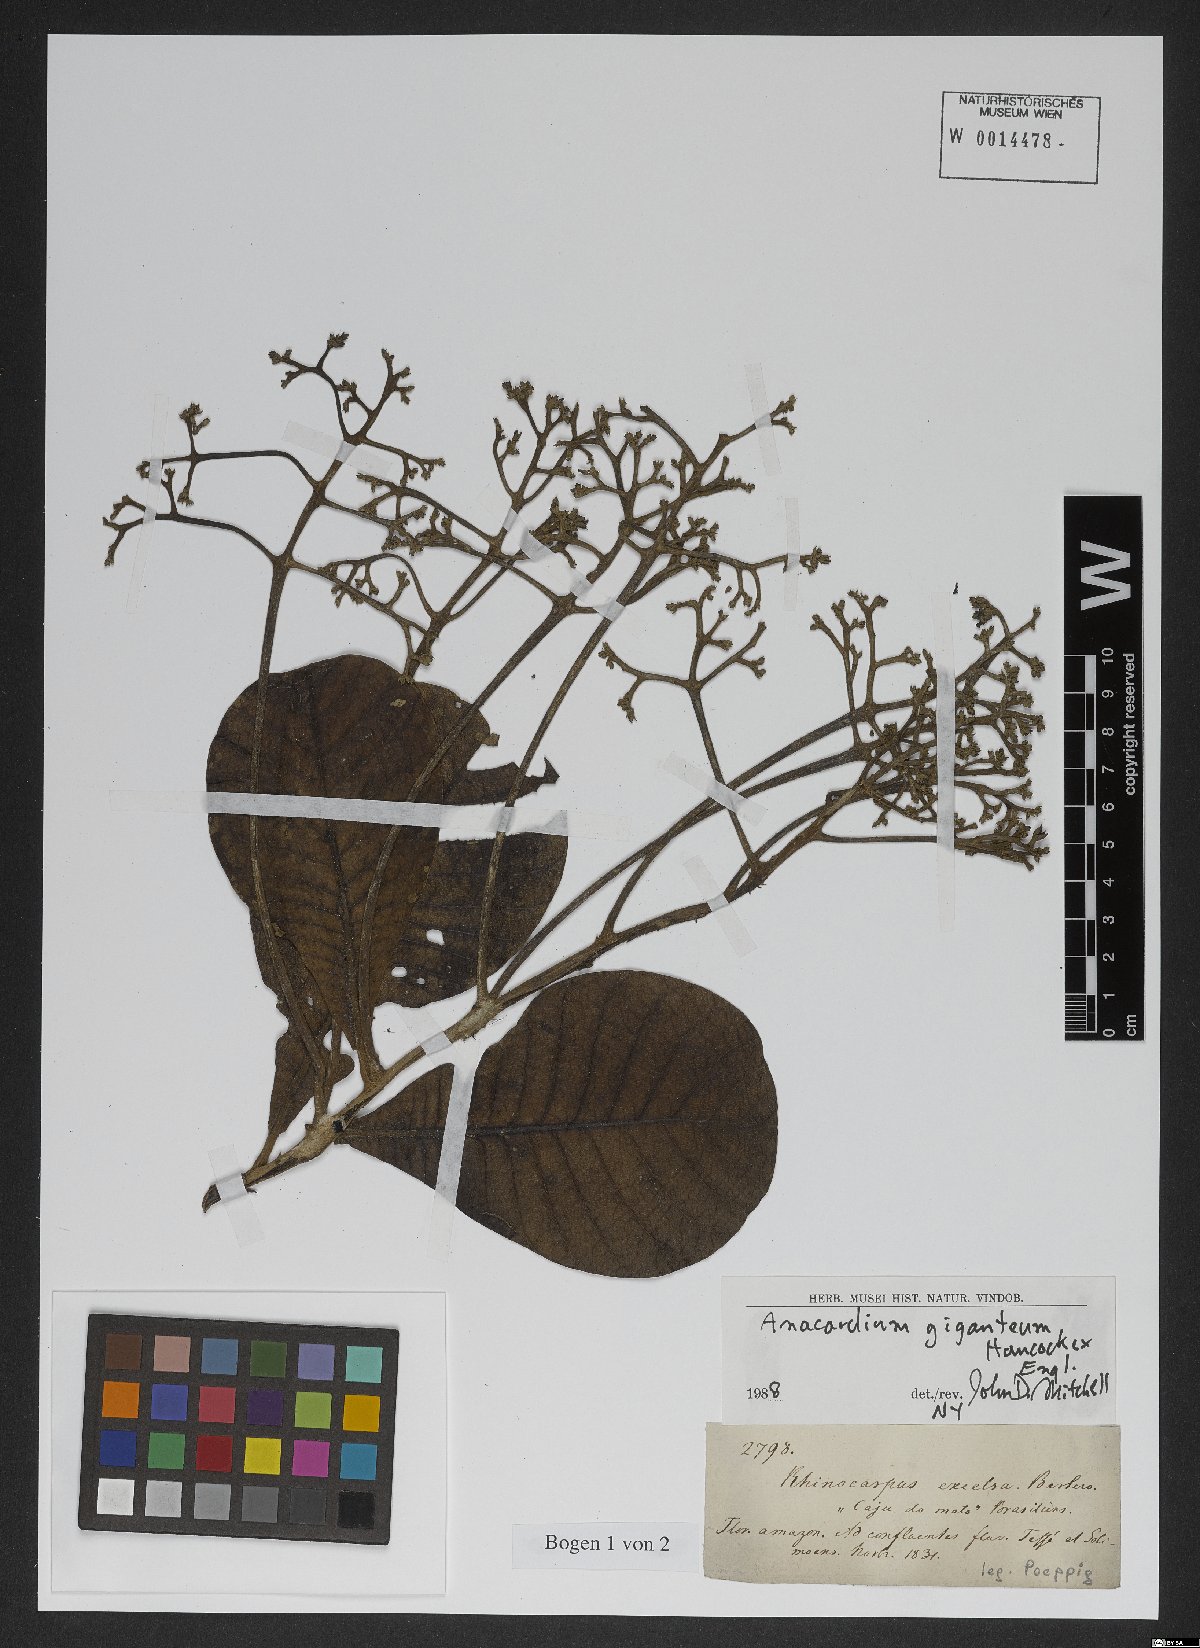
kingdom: Plantae
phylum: Tracheophyta
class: Magnoliopsida
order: Sapindales
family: Anacardiaceae
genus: Anacardium
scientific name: Anacardium giganteum
